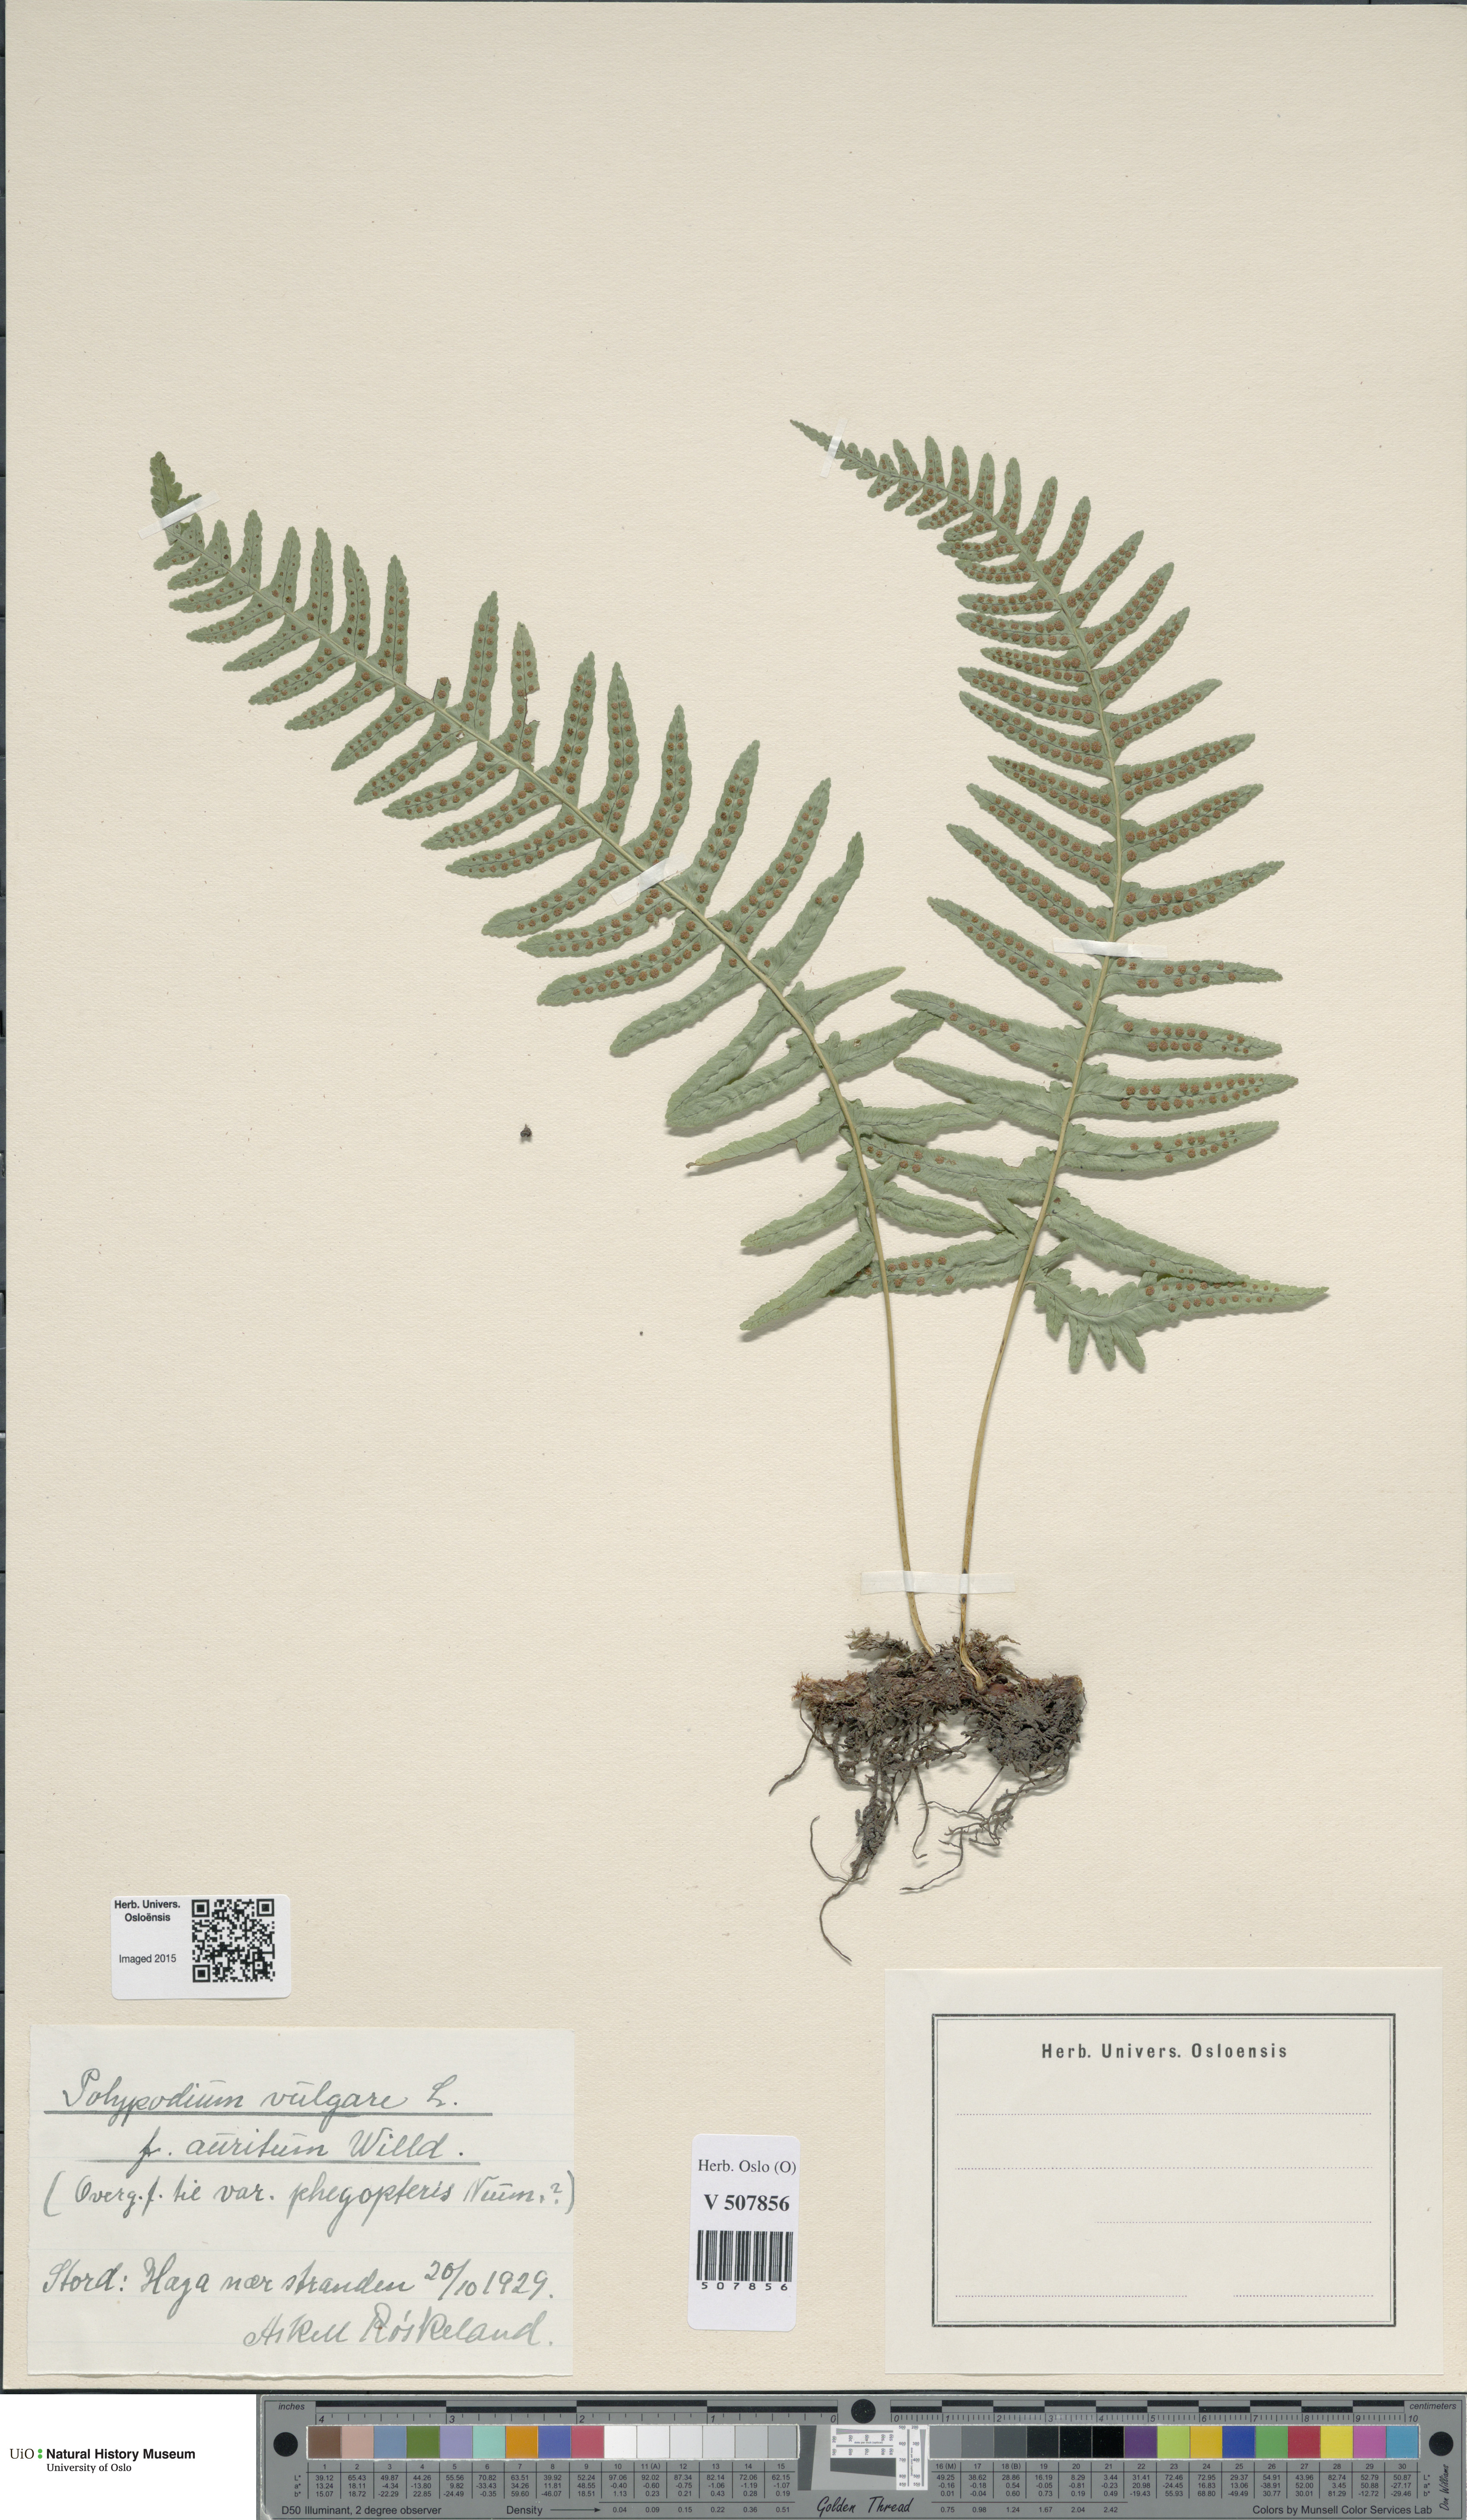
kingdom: Plantae
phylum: Tracheophyta
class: Polypodiopsida
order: Polypodiales
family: Polypodiaceae
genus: Polypodium
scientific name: Polypodium vulgare
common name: Common polypody
